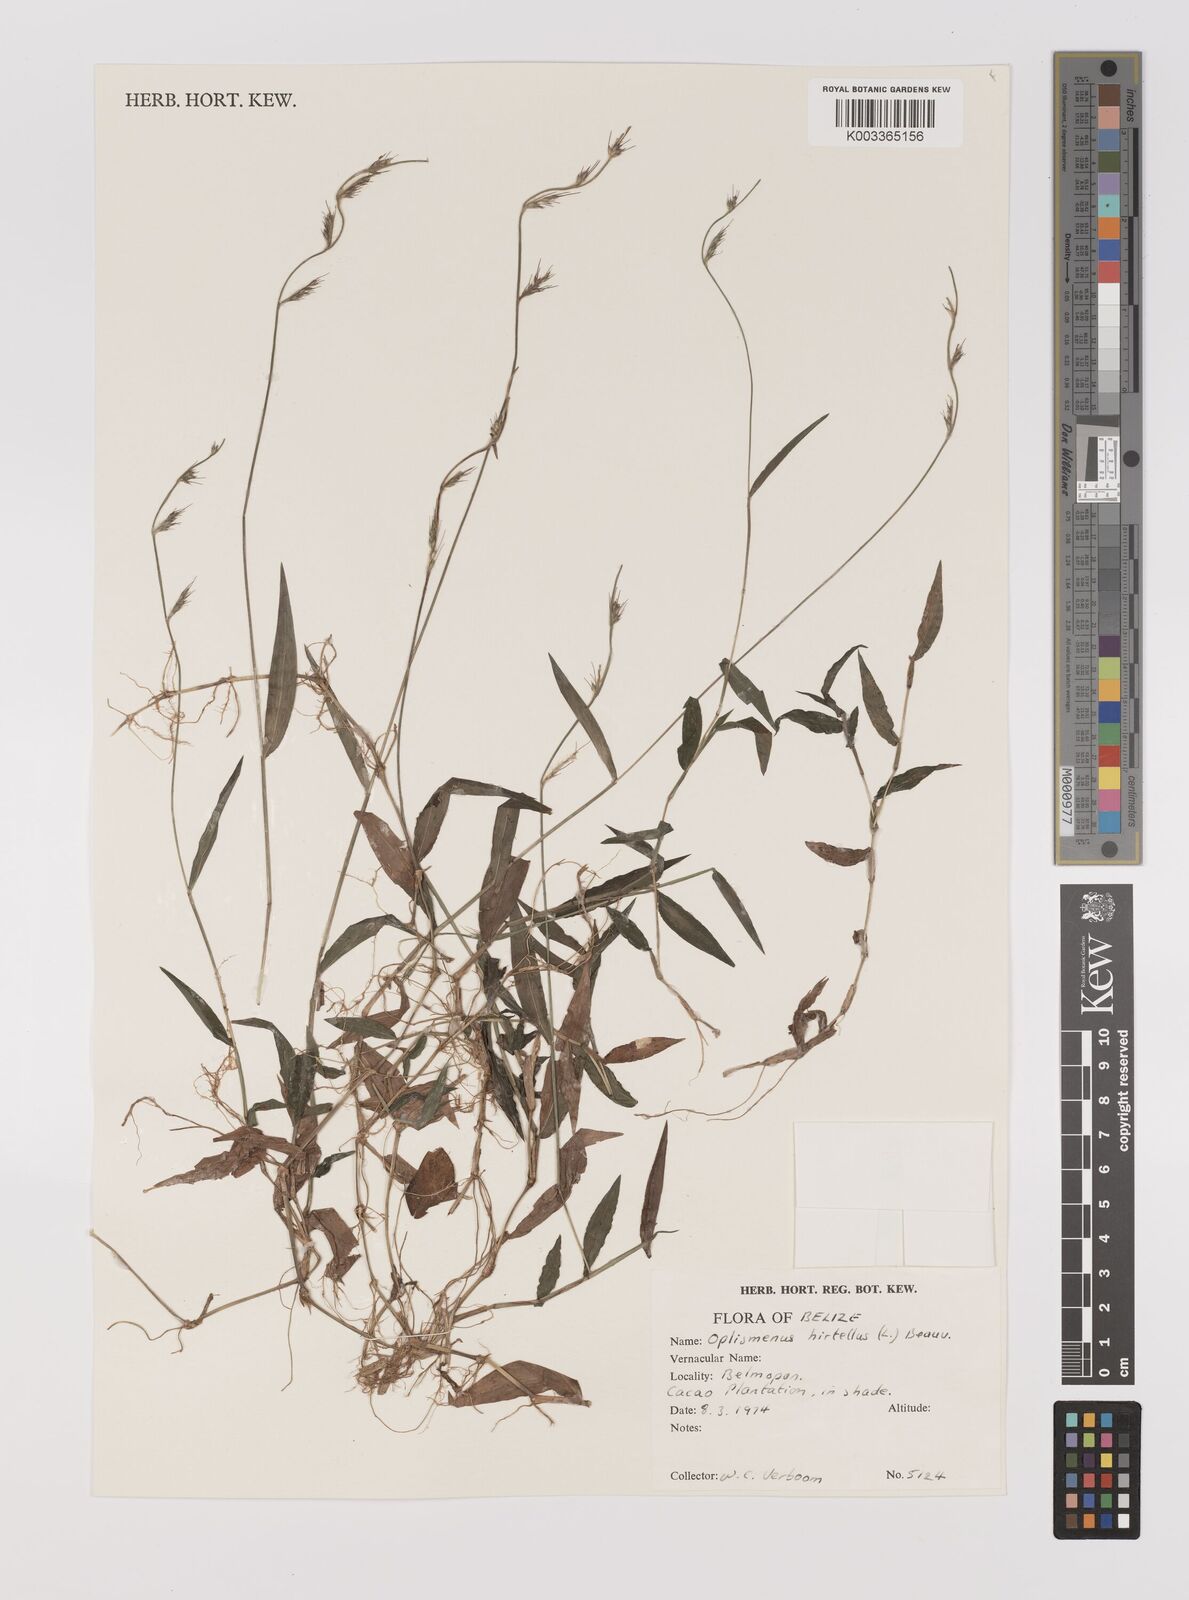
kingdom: Plantae
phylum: Tracheophyta
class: Liliopsida
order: Poales
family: Poaceae
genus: Oplismenus
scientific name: Oplismenus hirtellus
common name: Basketgrass
